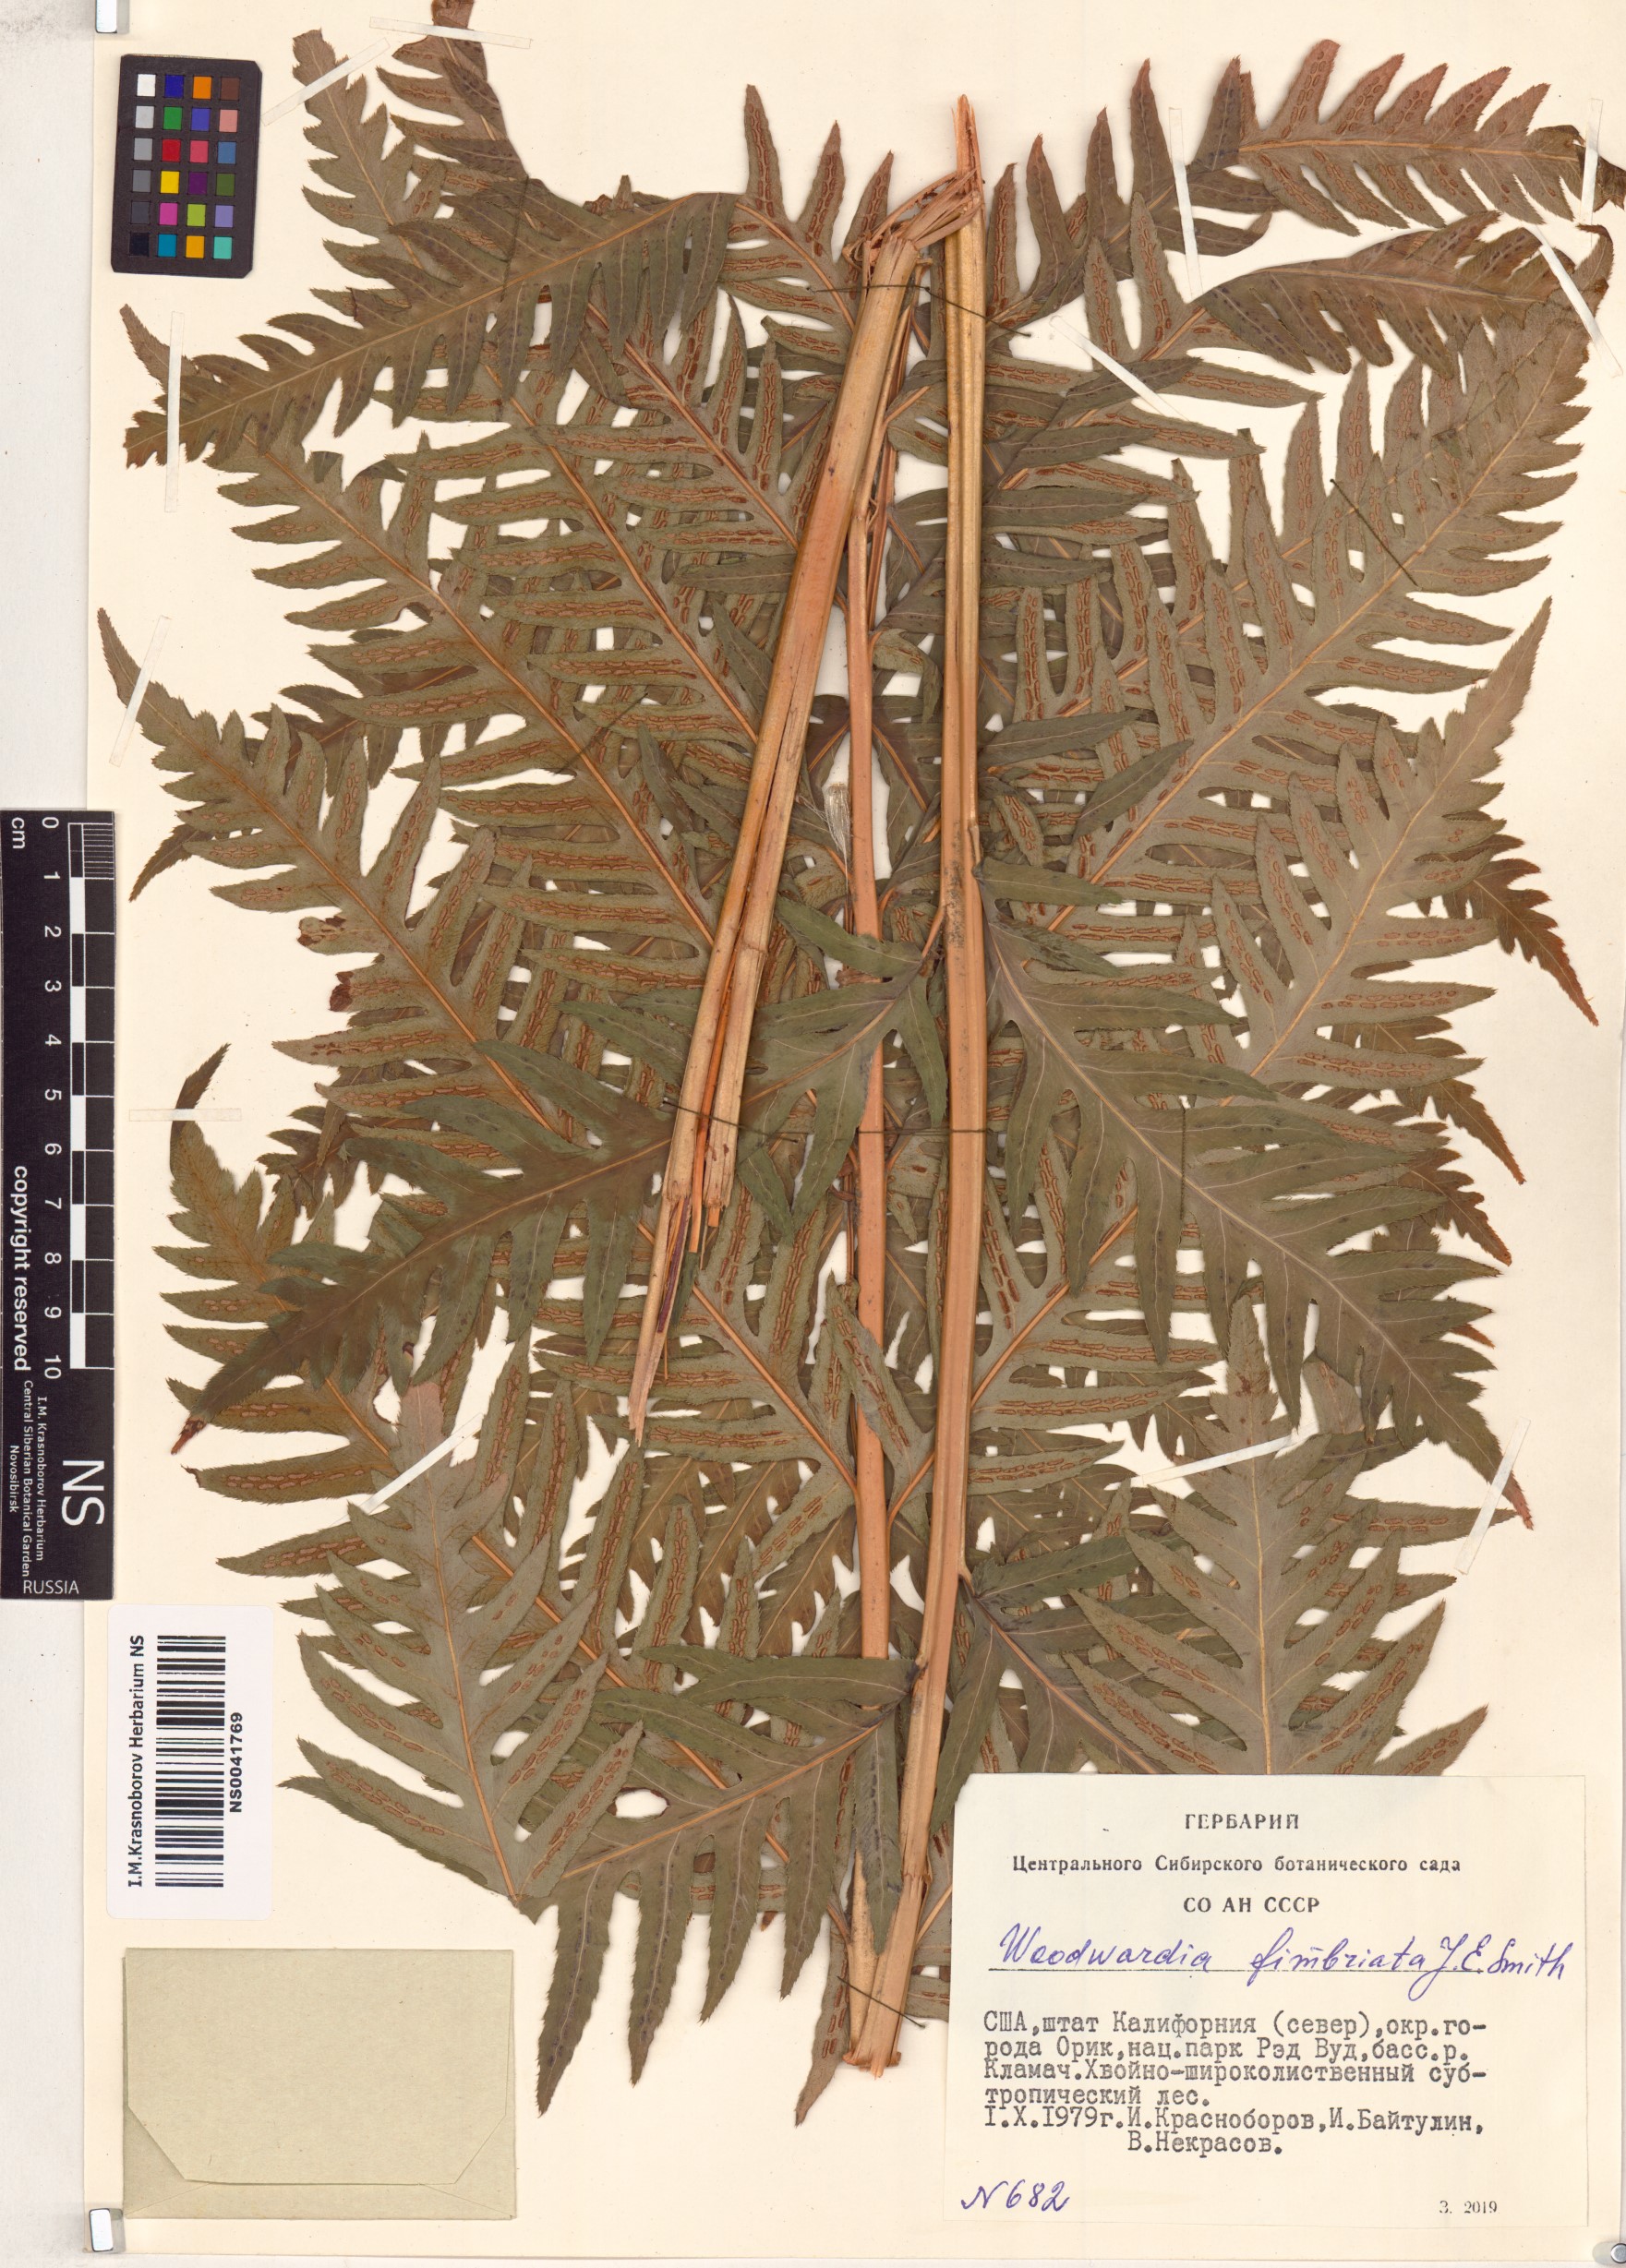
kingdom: Plantae
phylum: Tracheophyta
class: Polypodiopsida
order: Polypodiales
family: Blechnaceae
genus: Woodwardia
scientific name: Woodwardia fimbriata
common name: Giant chain fern
